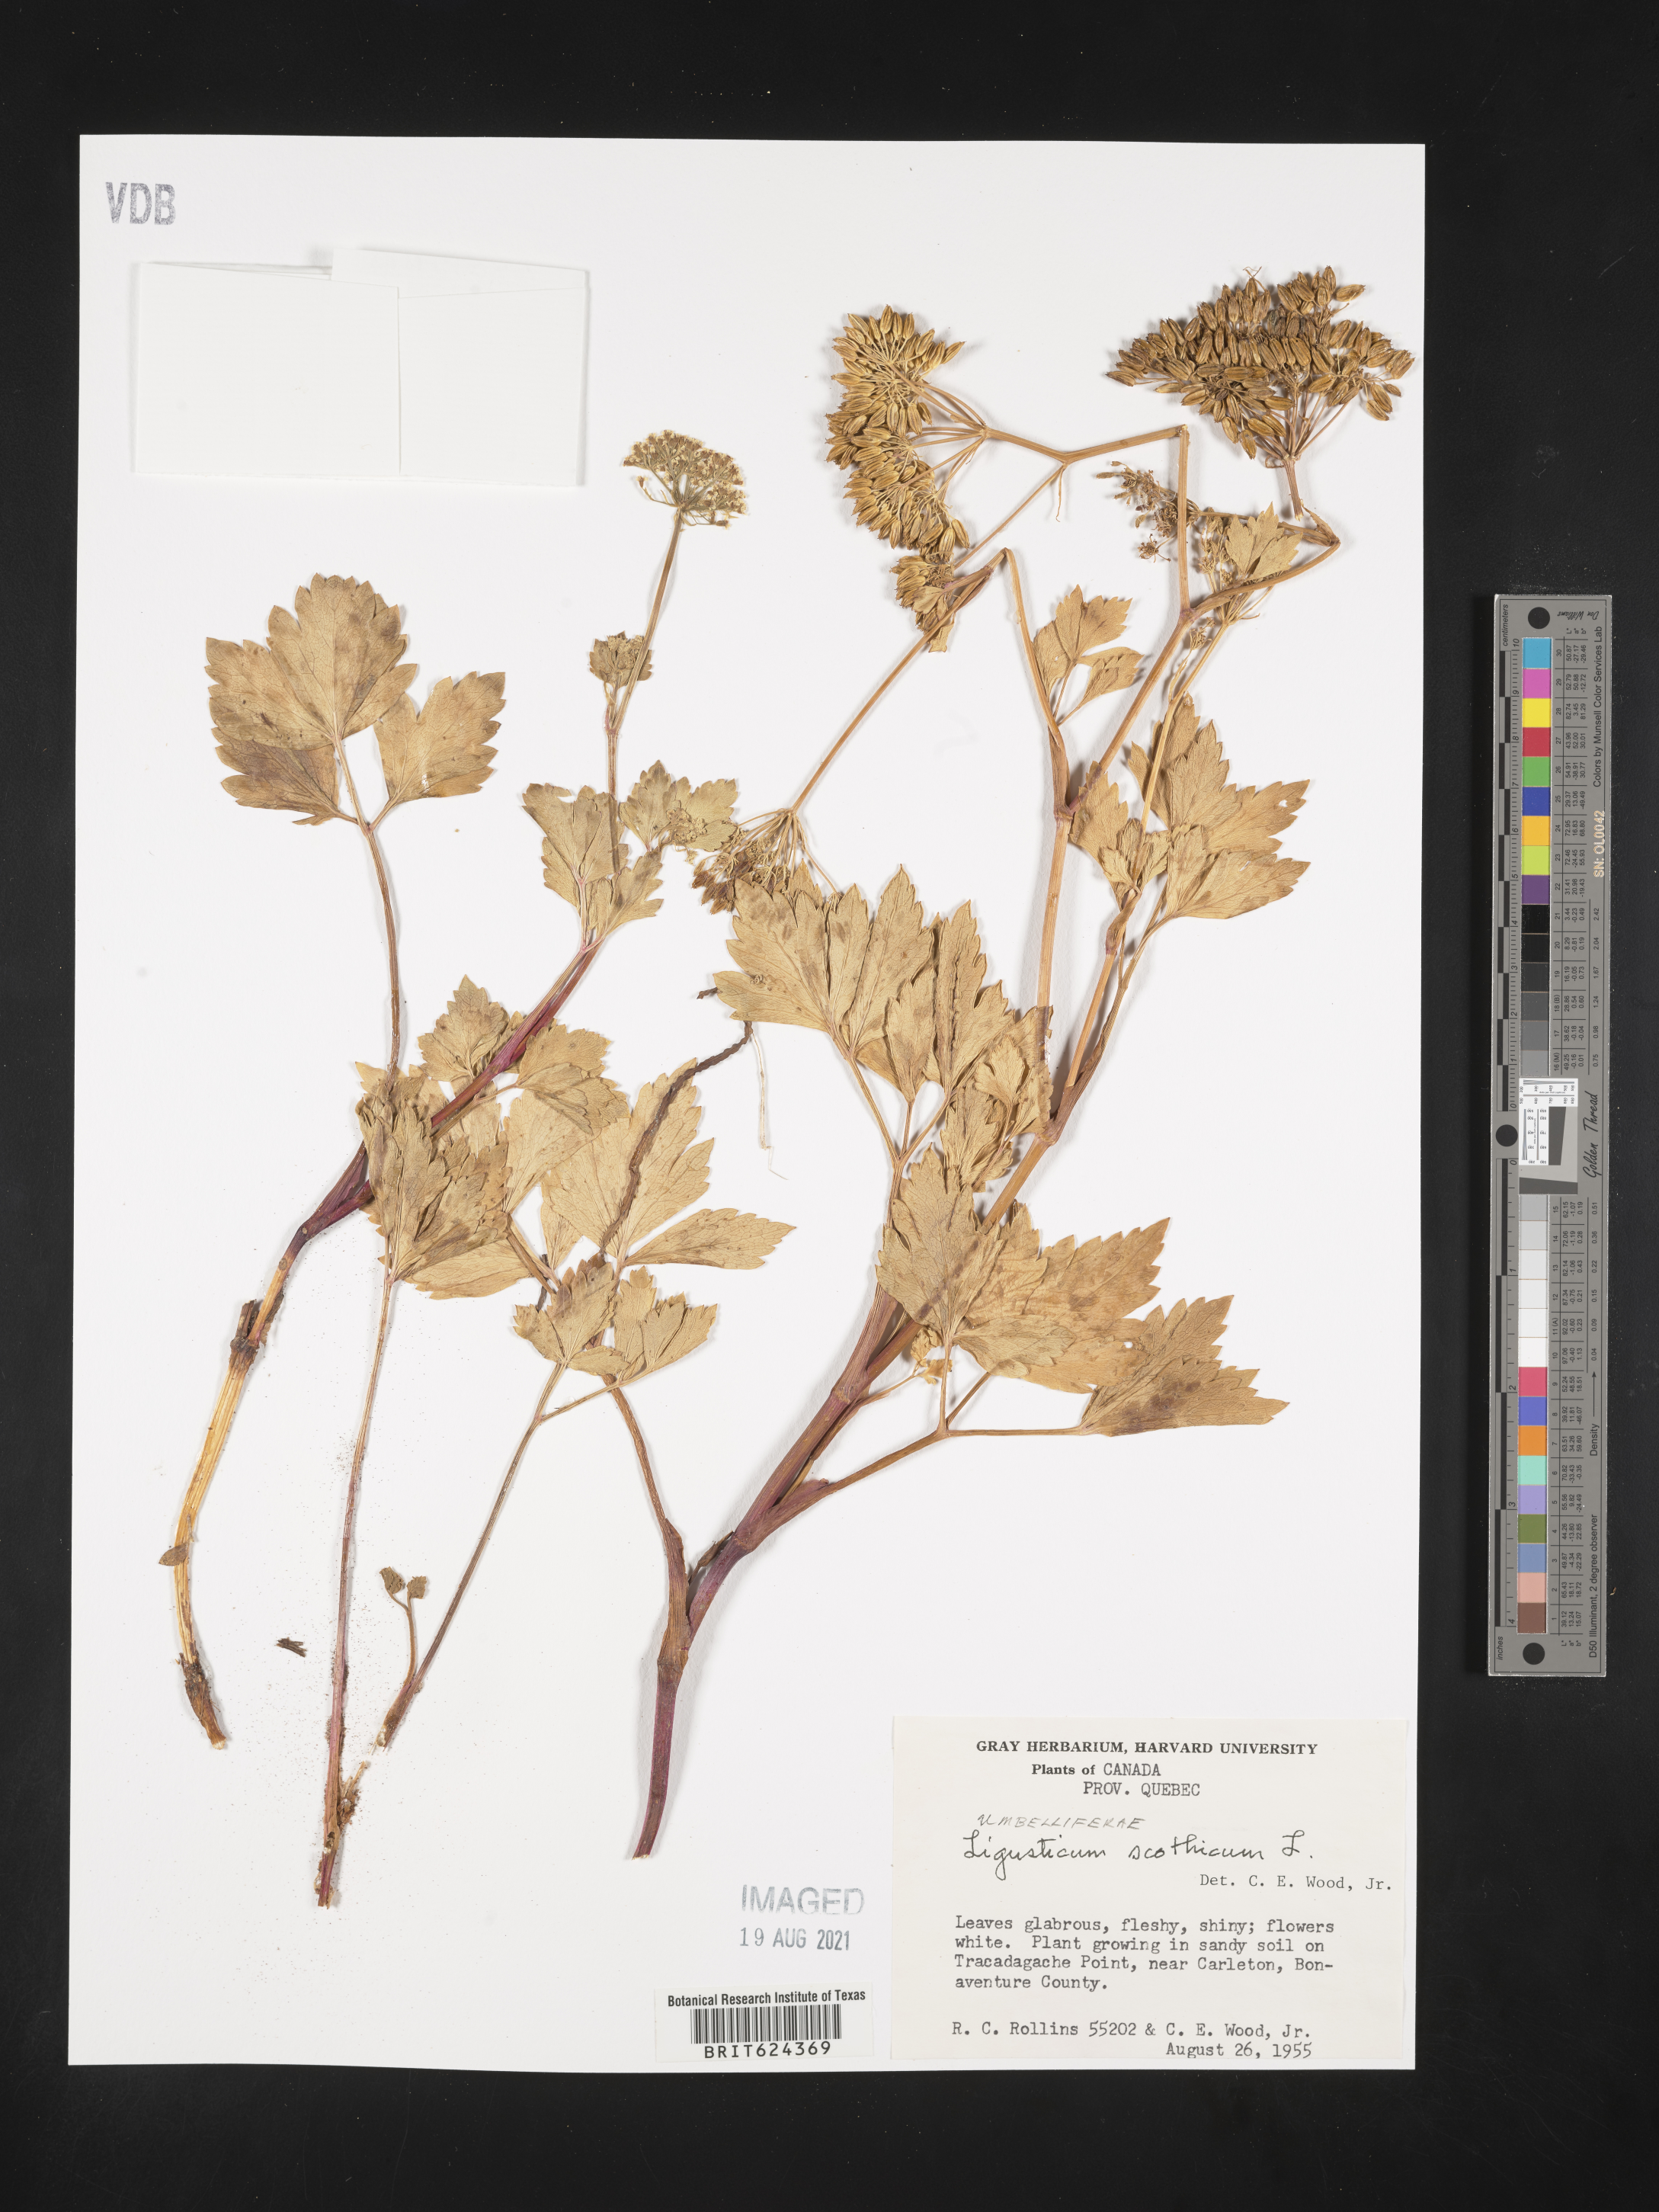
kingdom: Plantae
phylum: Tracheophyta
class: Magnoliopsida
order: Apiales
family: Apiaceae
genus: Ligusticum
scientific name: Ligusticum scothicum
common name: Beach lovage
